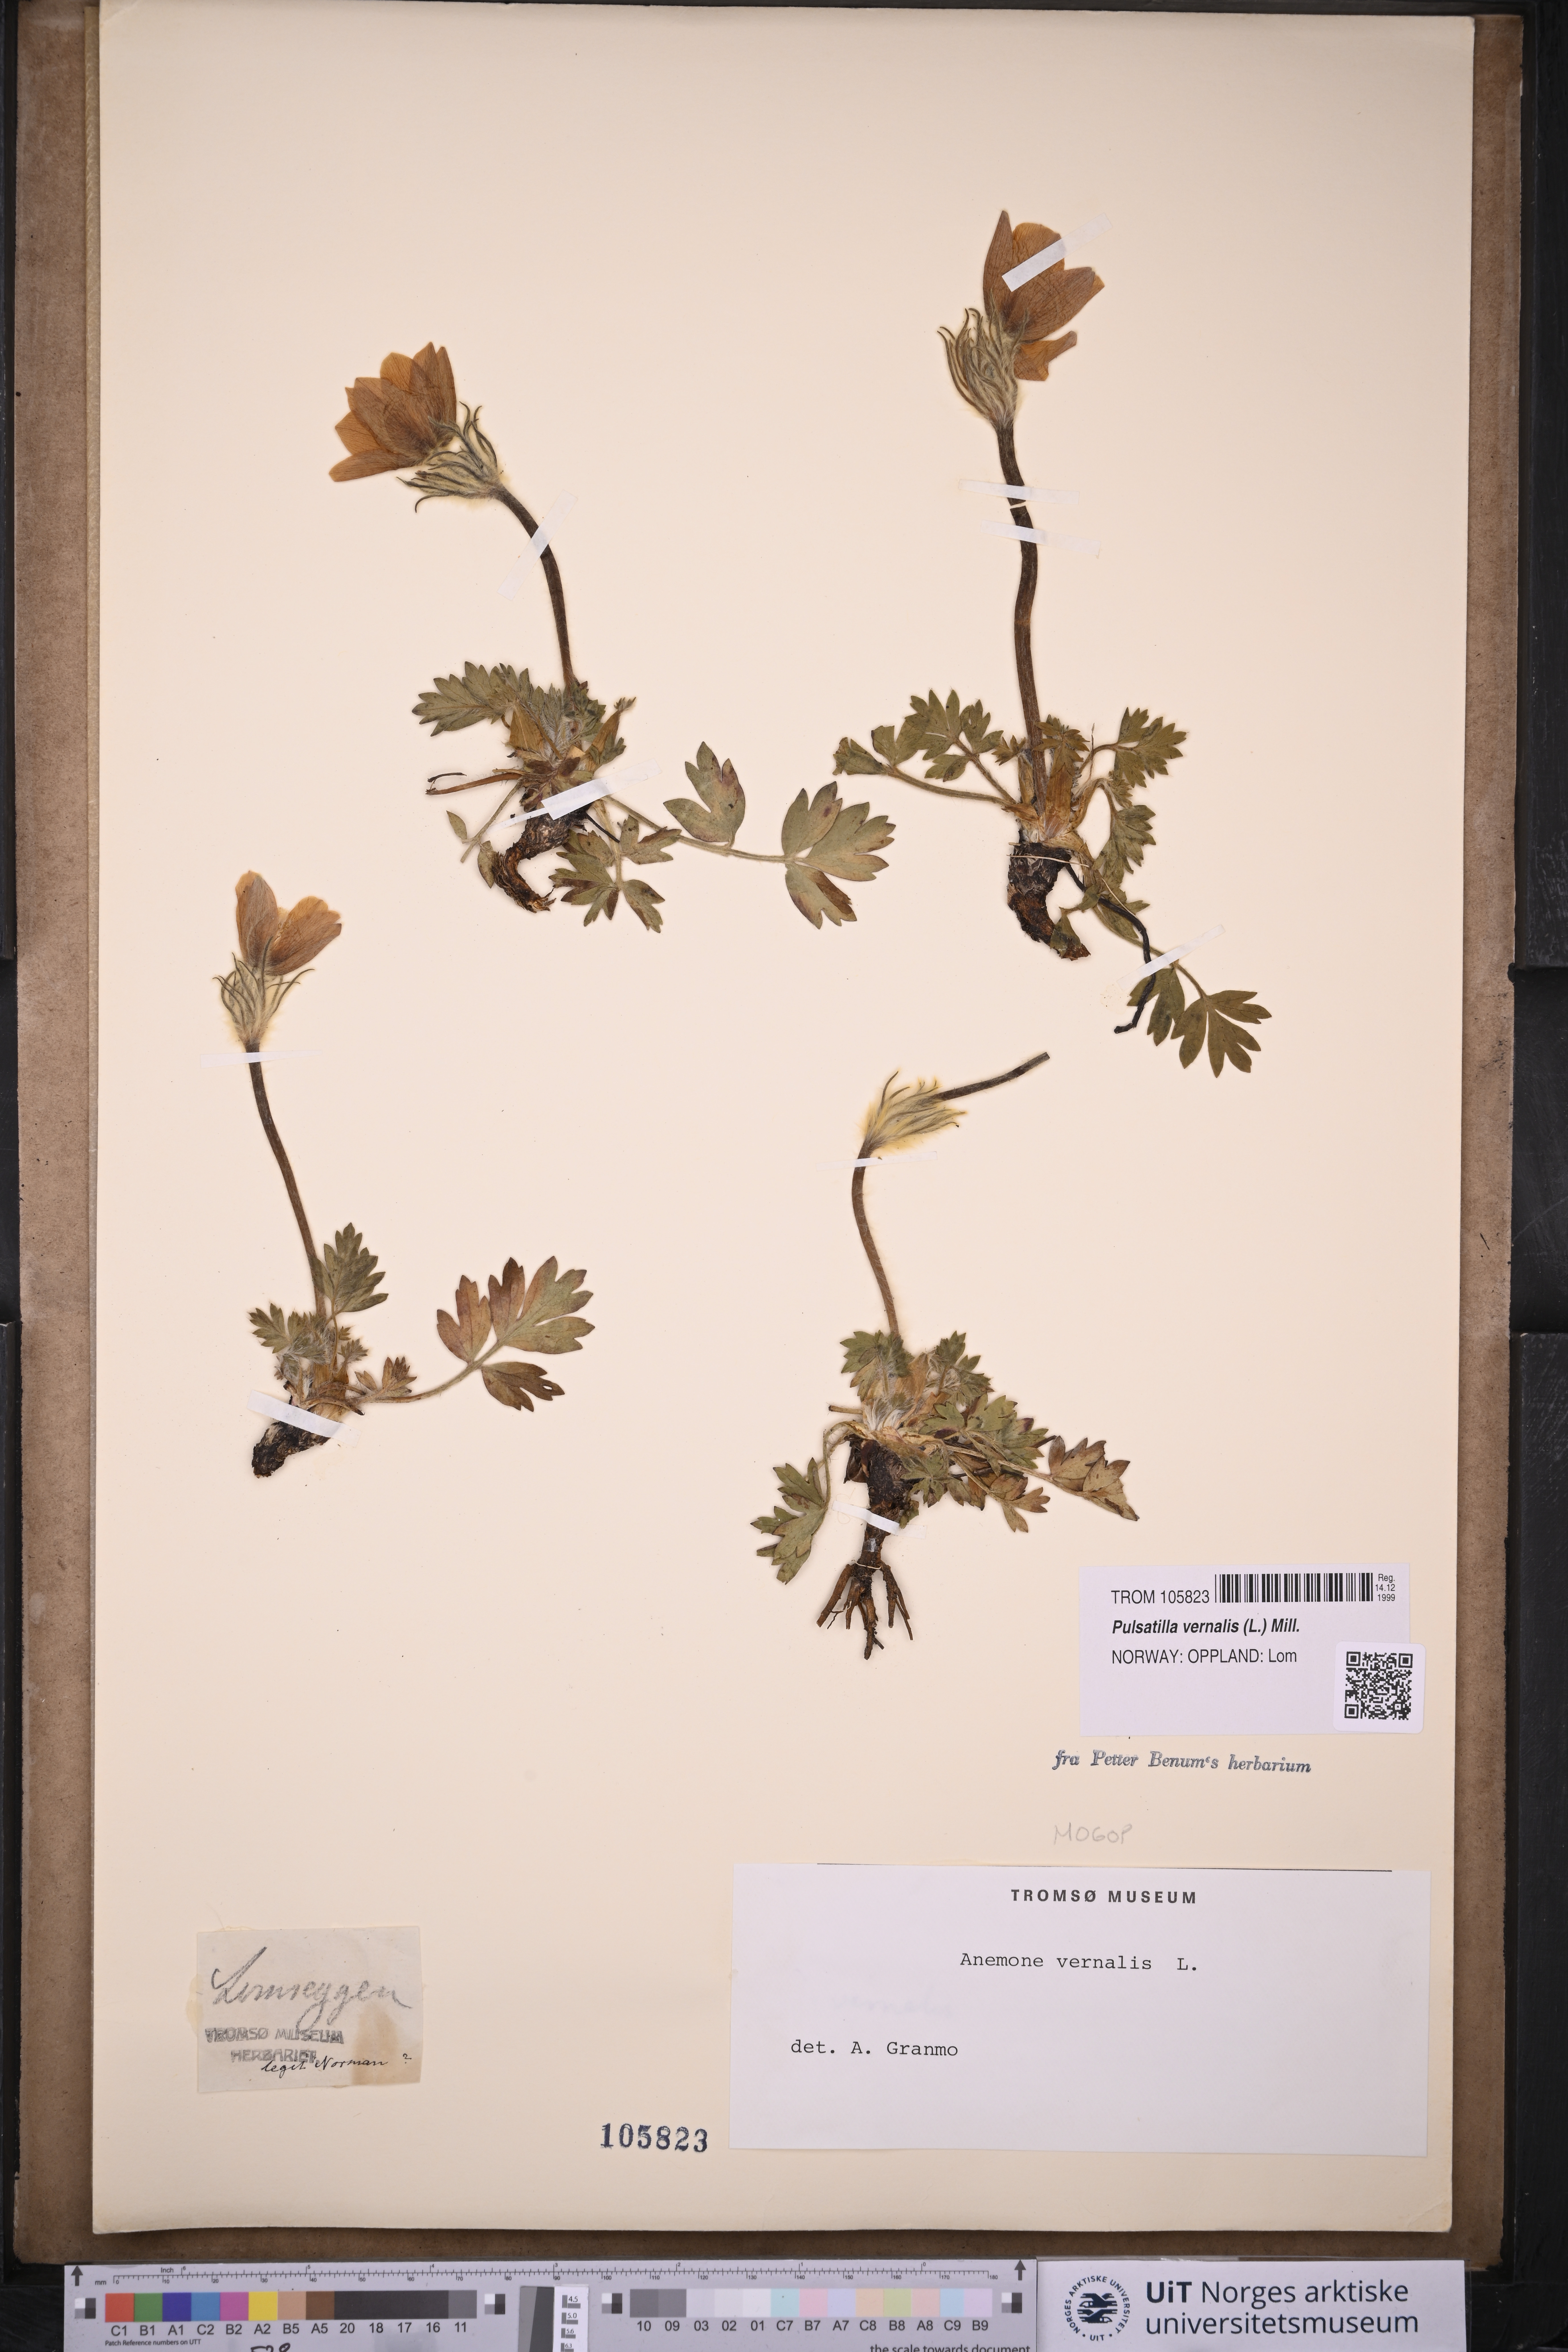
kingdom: Plantae
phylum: Tracheophyta
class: Magnoliopsida
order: Ranunculales
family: Ranunculaceae
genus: Pulsatilla
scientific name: Pulsatilla vernalis
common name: Spring pasque flower
